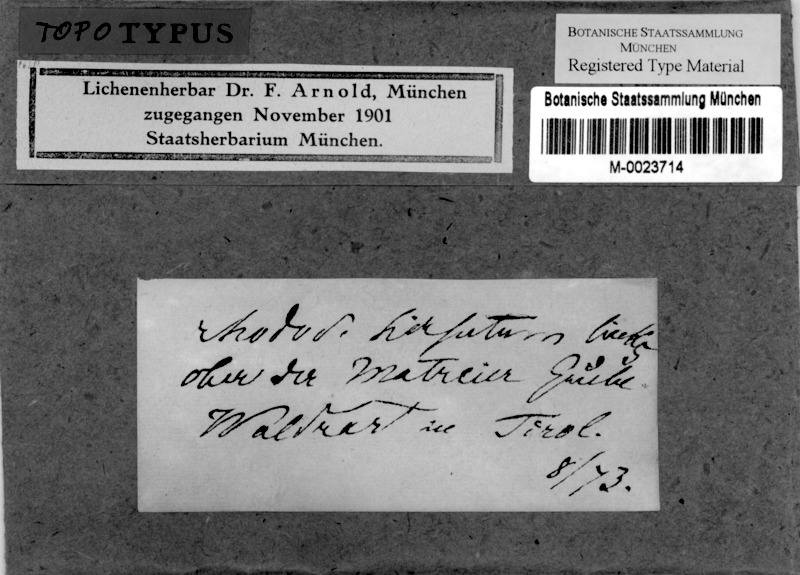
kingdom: Fungi
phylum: Ascomycota
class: Lecanoromycetes
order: Ostropales
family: Stictidaceae
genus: Thelopsis
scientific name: Thelopsis flaveola
